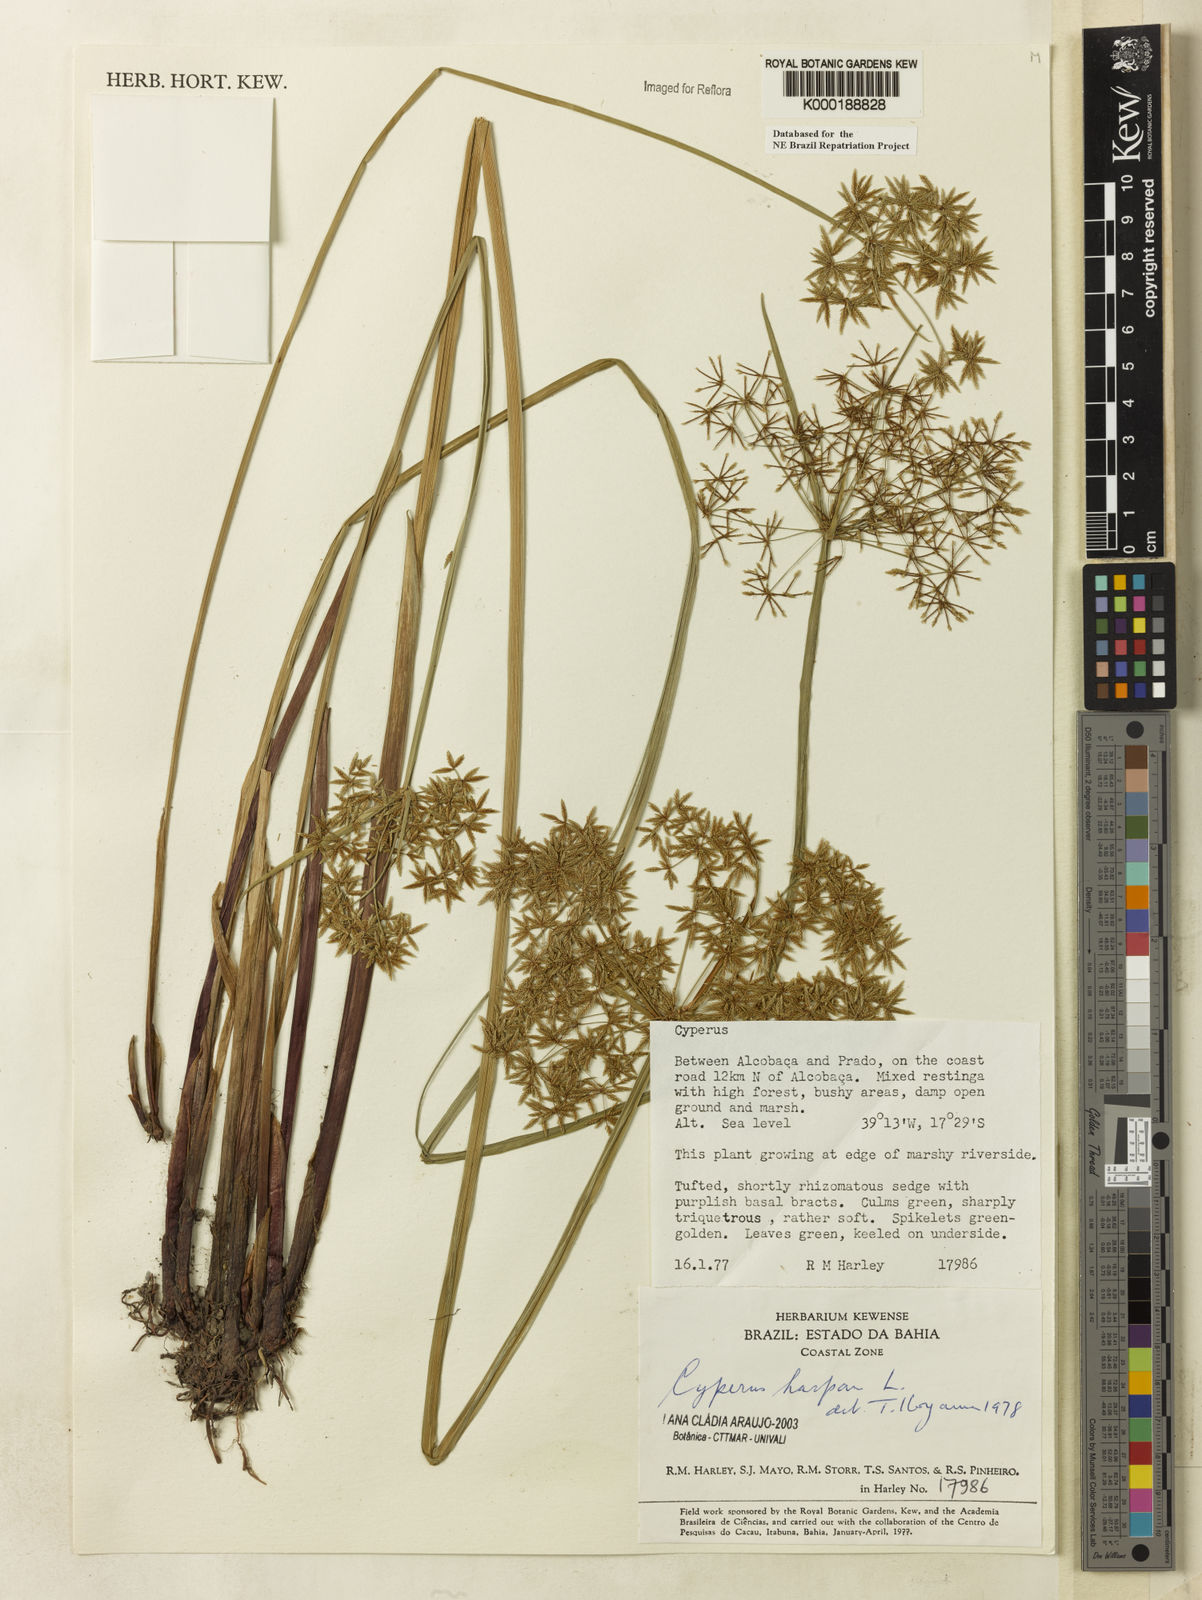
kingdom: Plantae
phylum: Tracheophyta
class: Liliopsida
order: Poales
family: Cyperaceae
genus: Cyperus
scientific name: Cyperus haspan
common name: Haspan flatsedge
